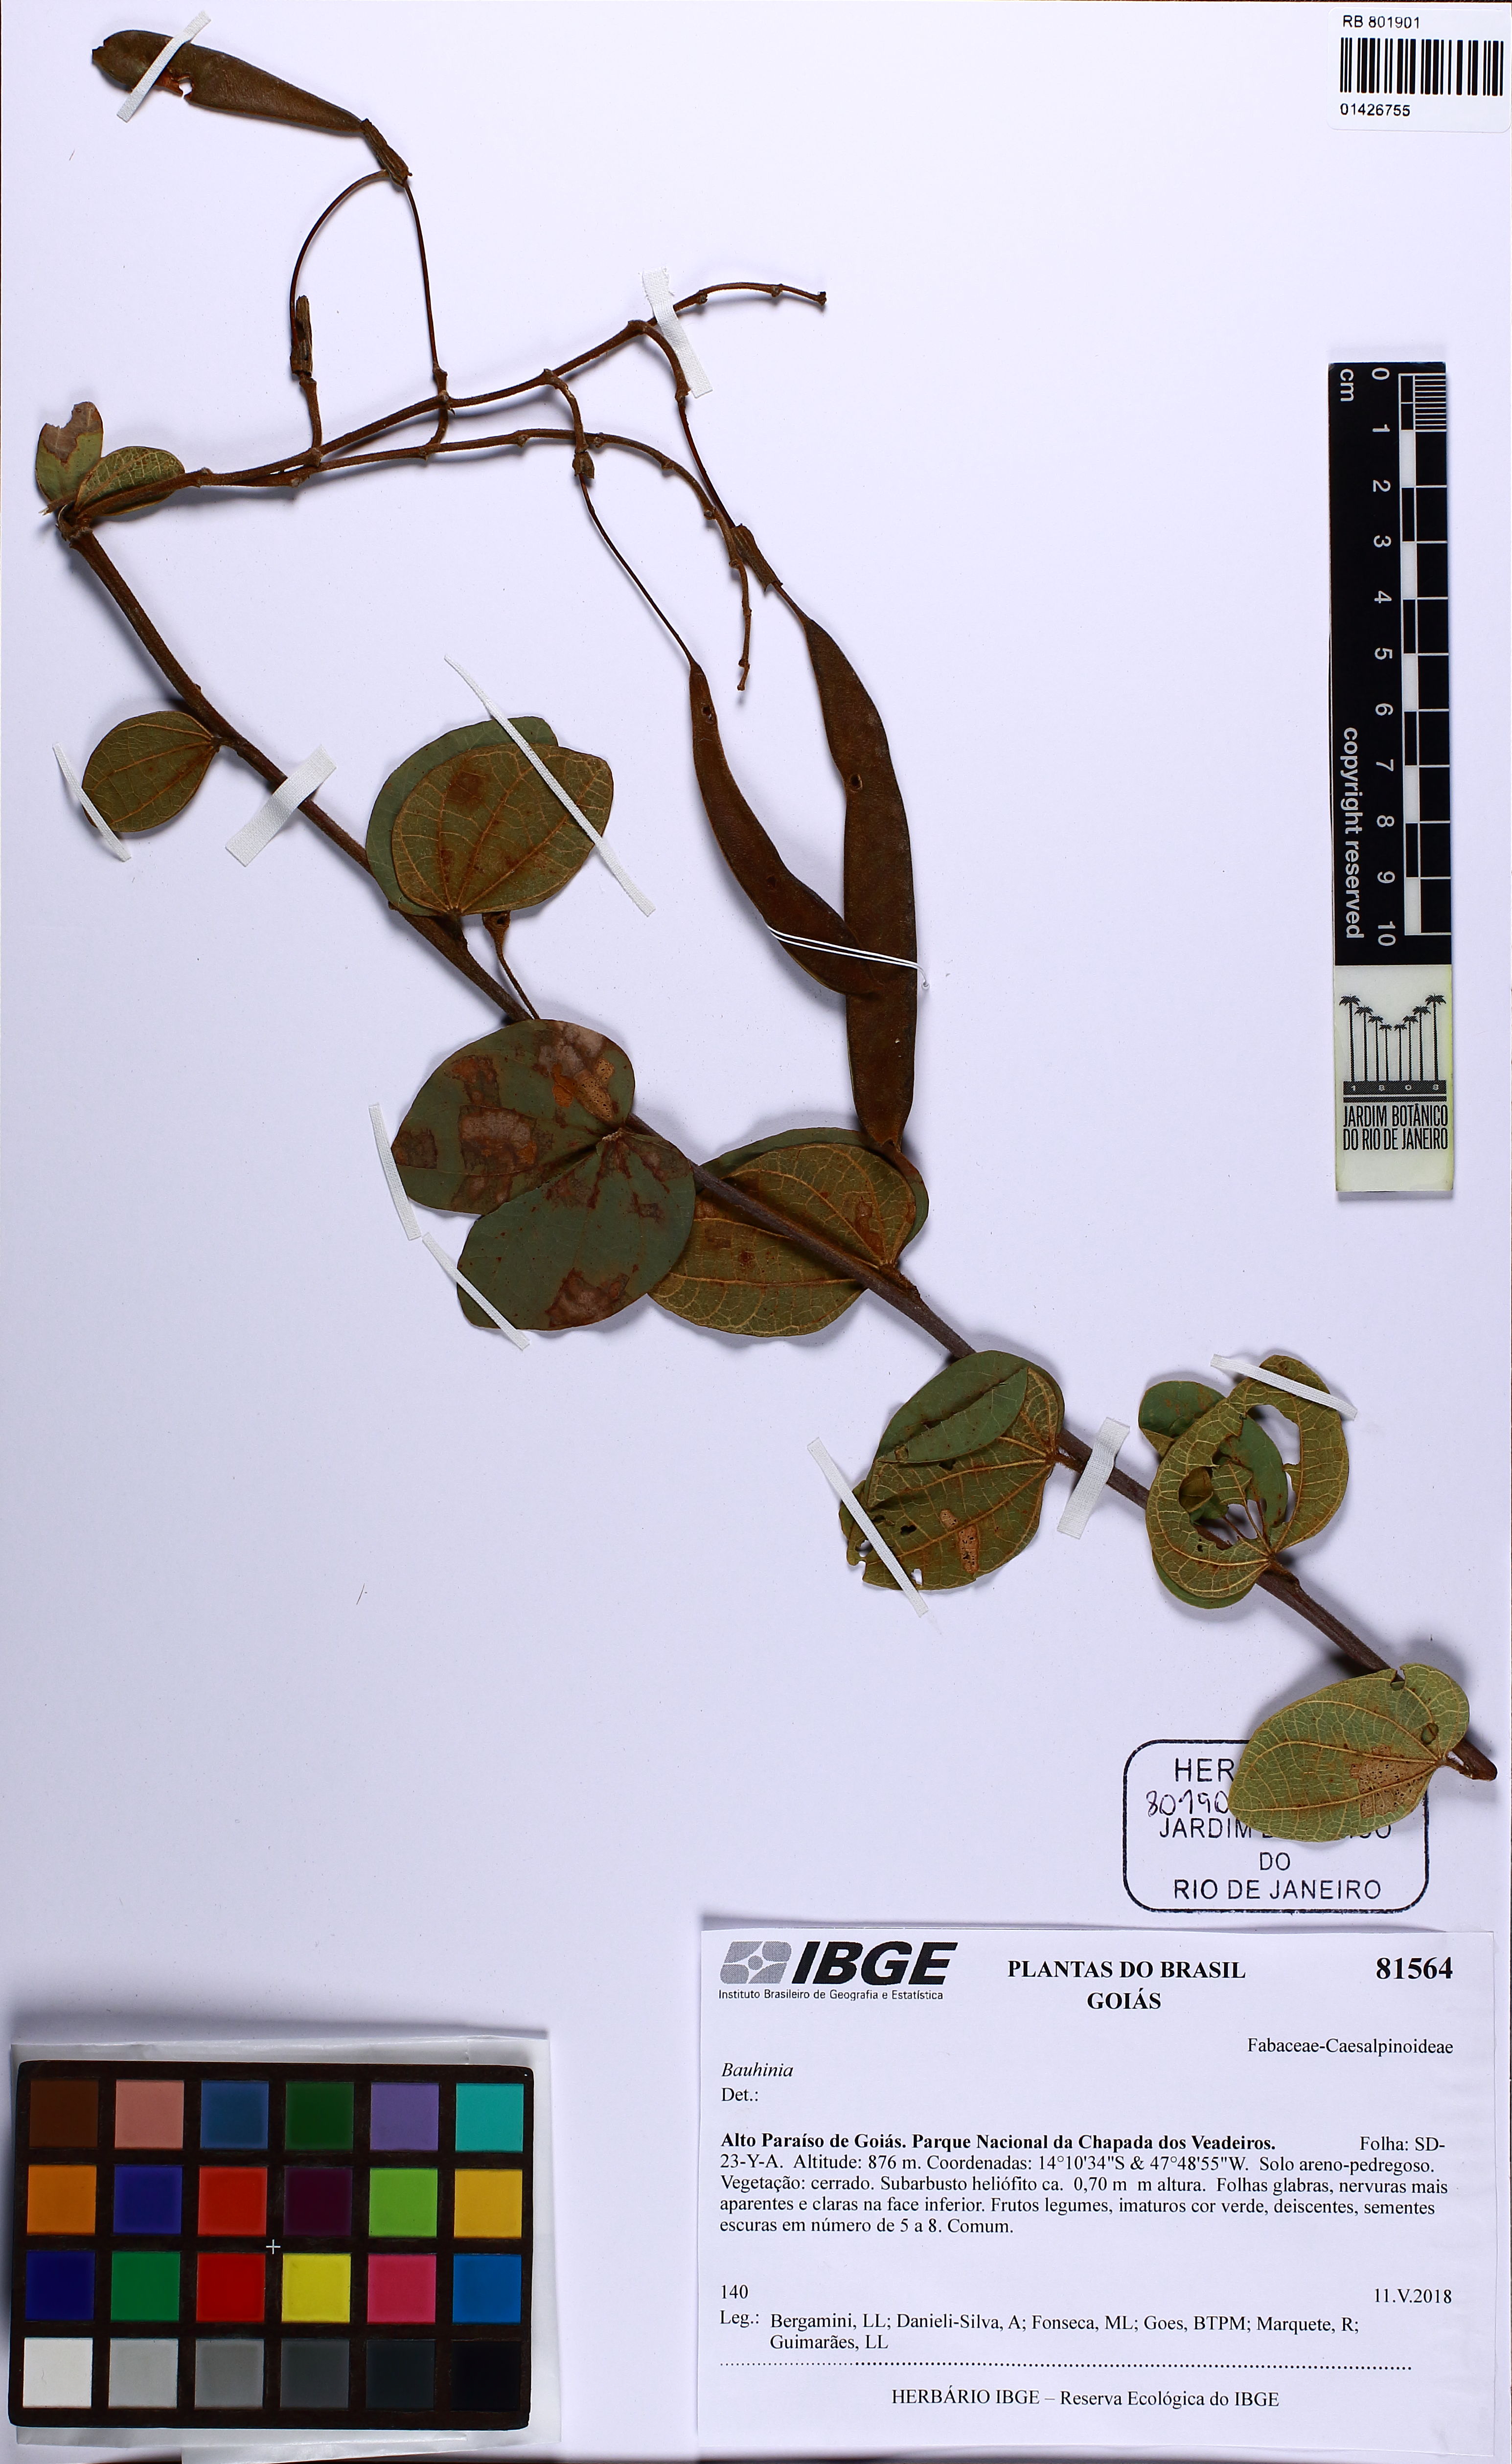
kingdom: Plantae
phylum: Tracheophyta
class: Magnoliopsida
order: Fabales
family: Fabaceae
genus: Bauhinia
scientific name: Bauhinia
